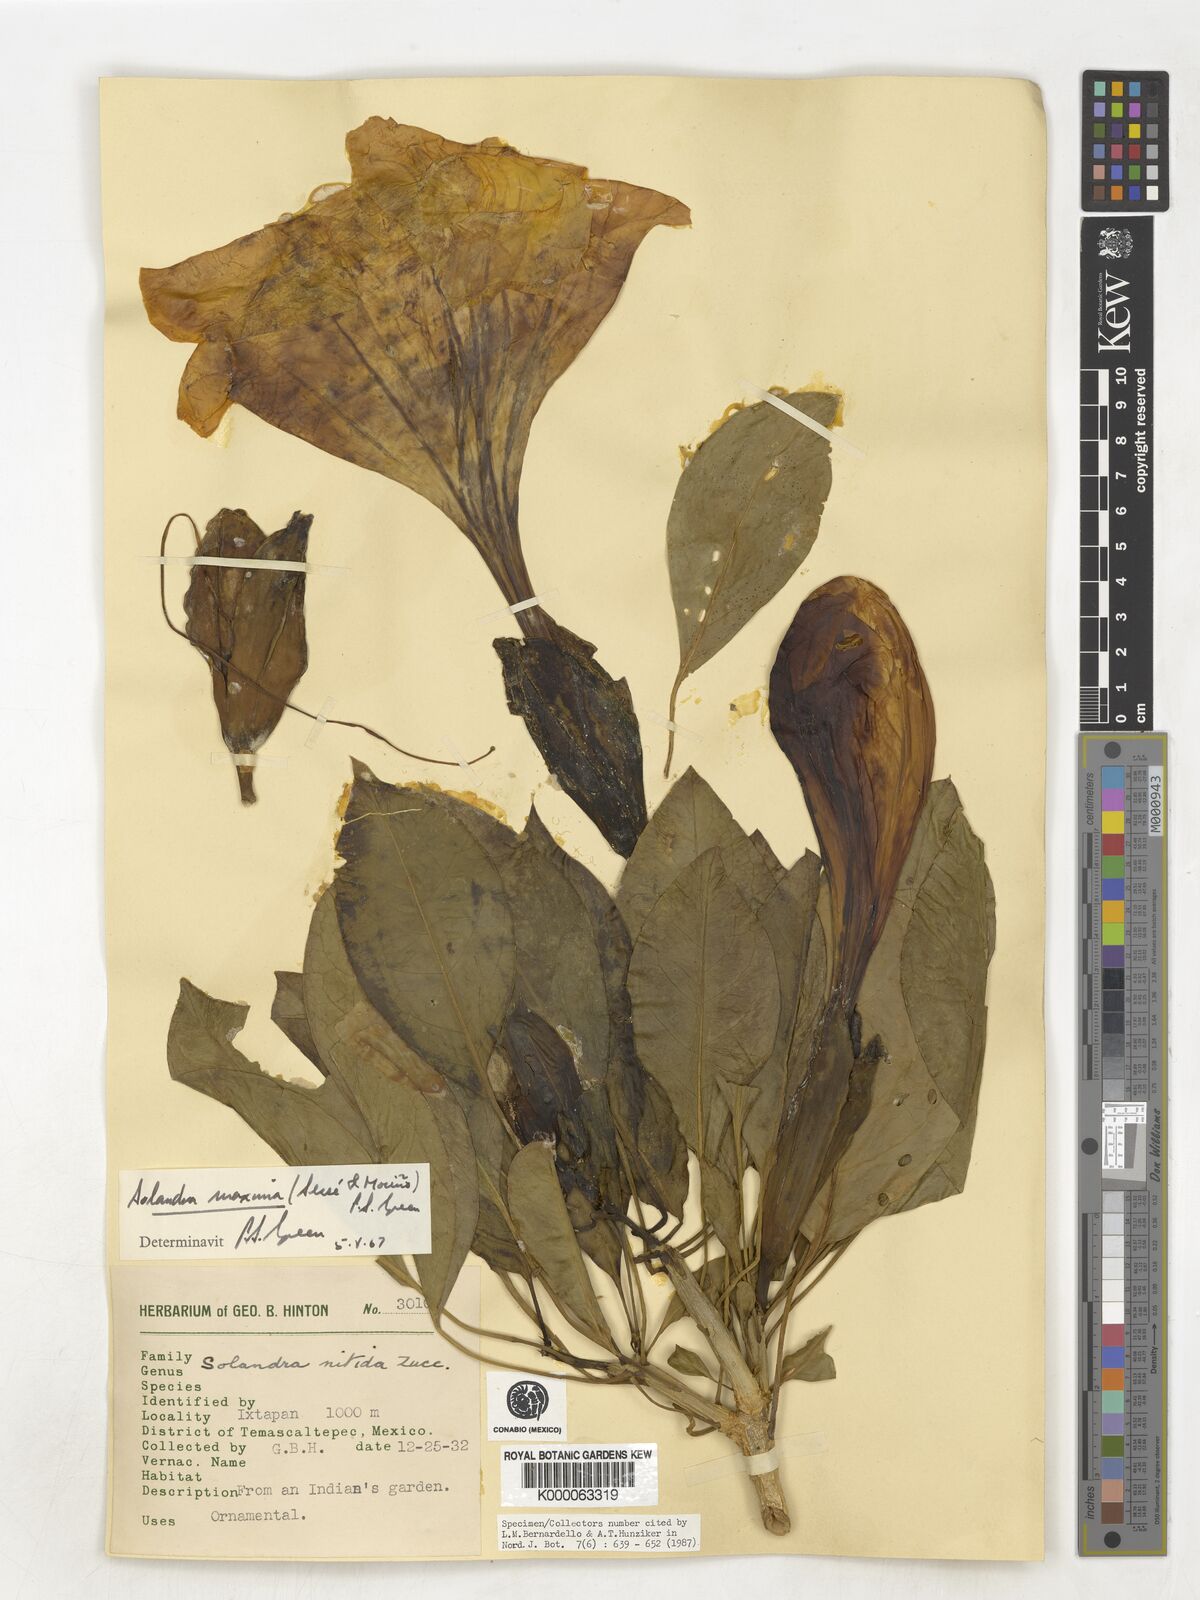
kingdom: Plantae
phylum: Tracheophyta
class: Magnoliopsida
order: Solanales
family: Solanaceae
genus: Solandra
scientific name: Solandra
